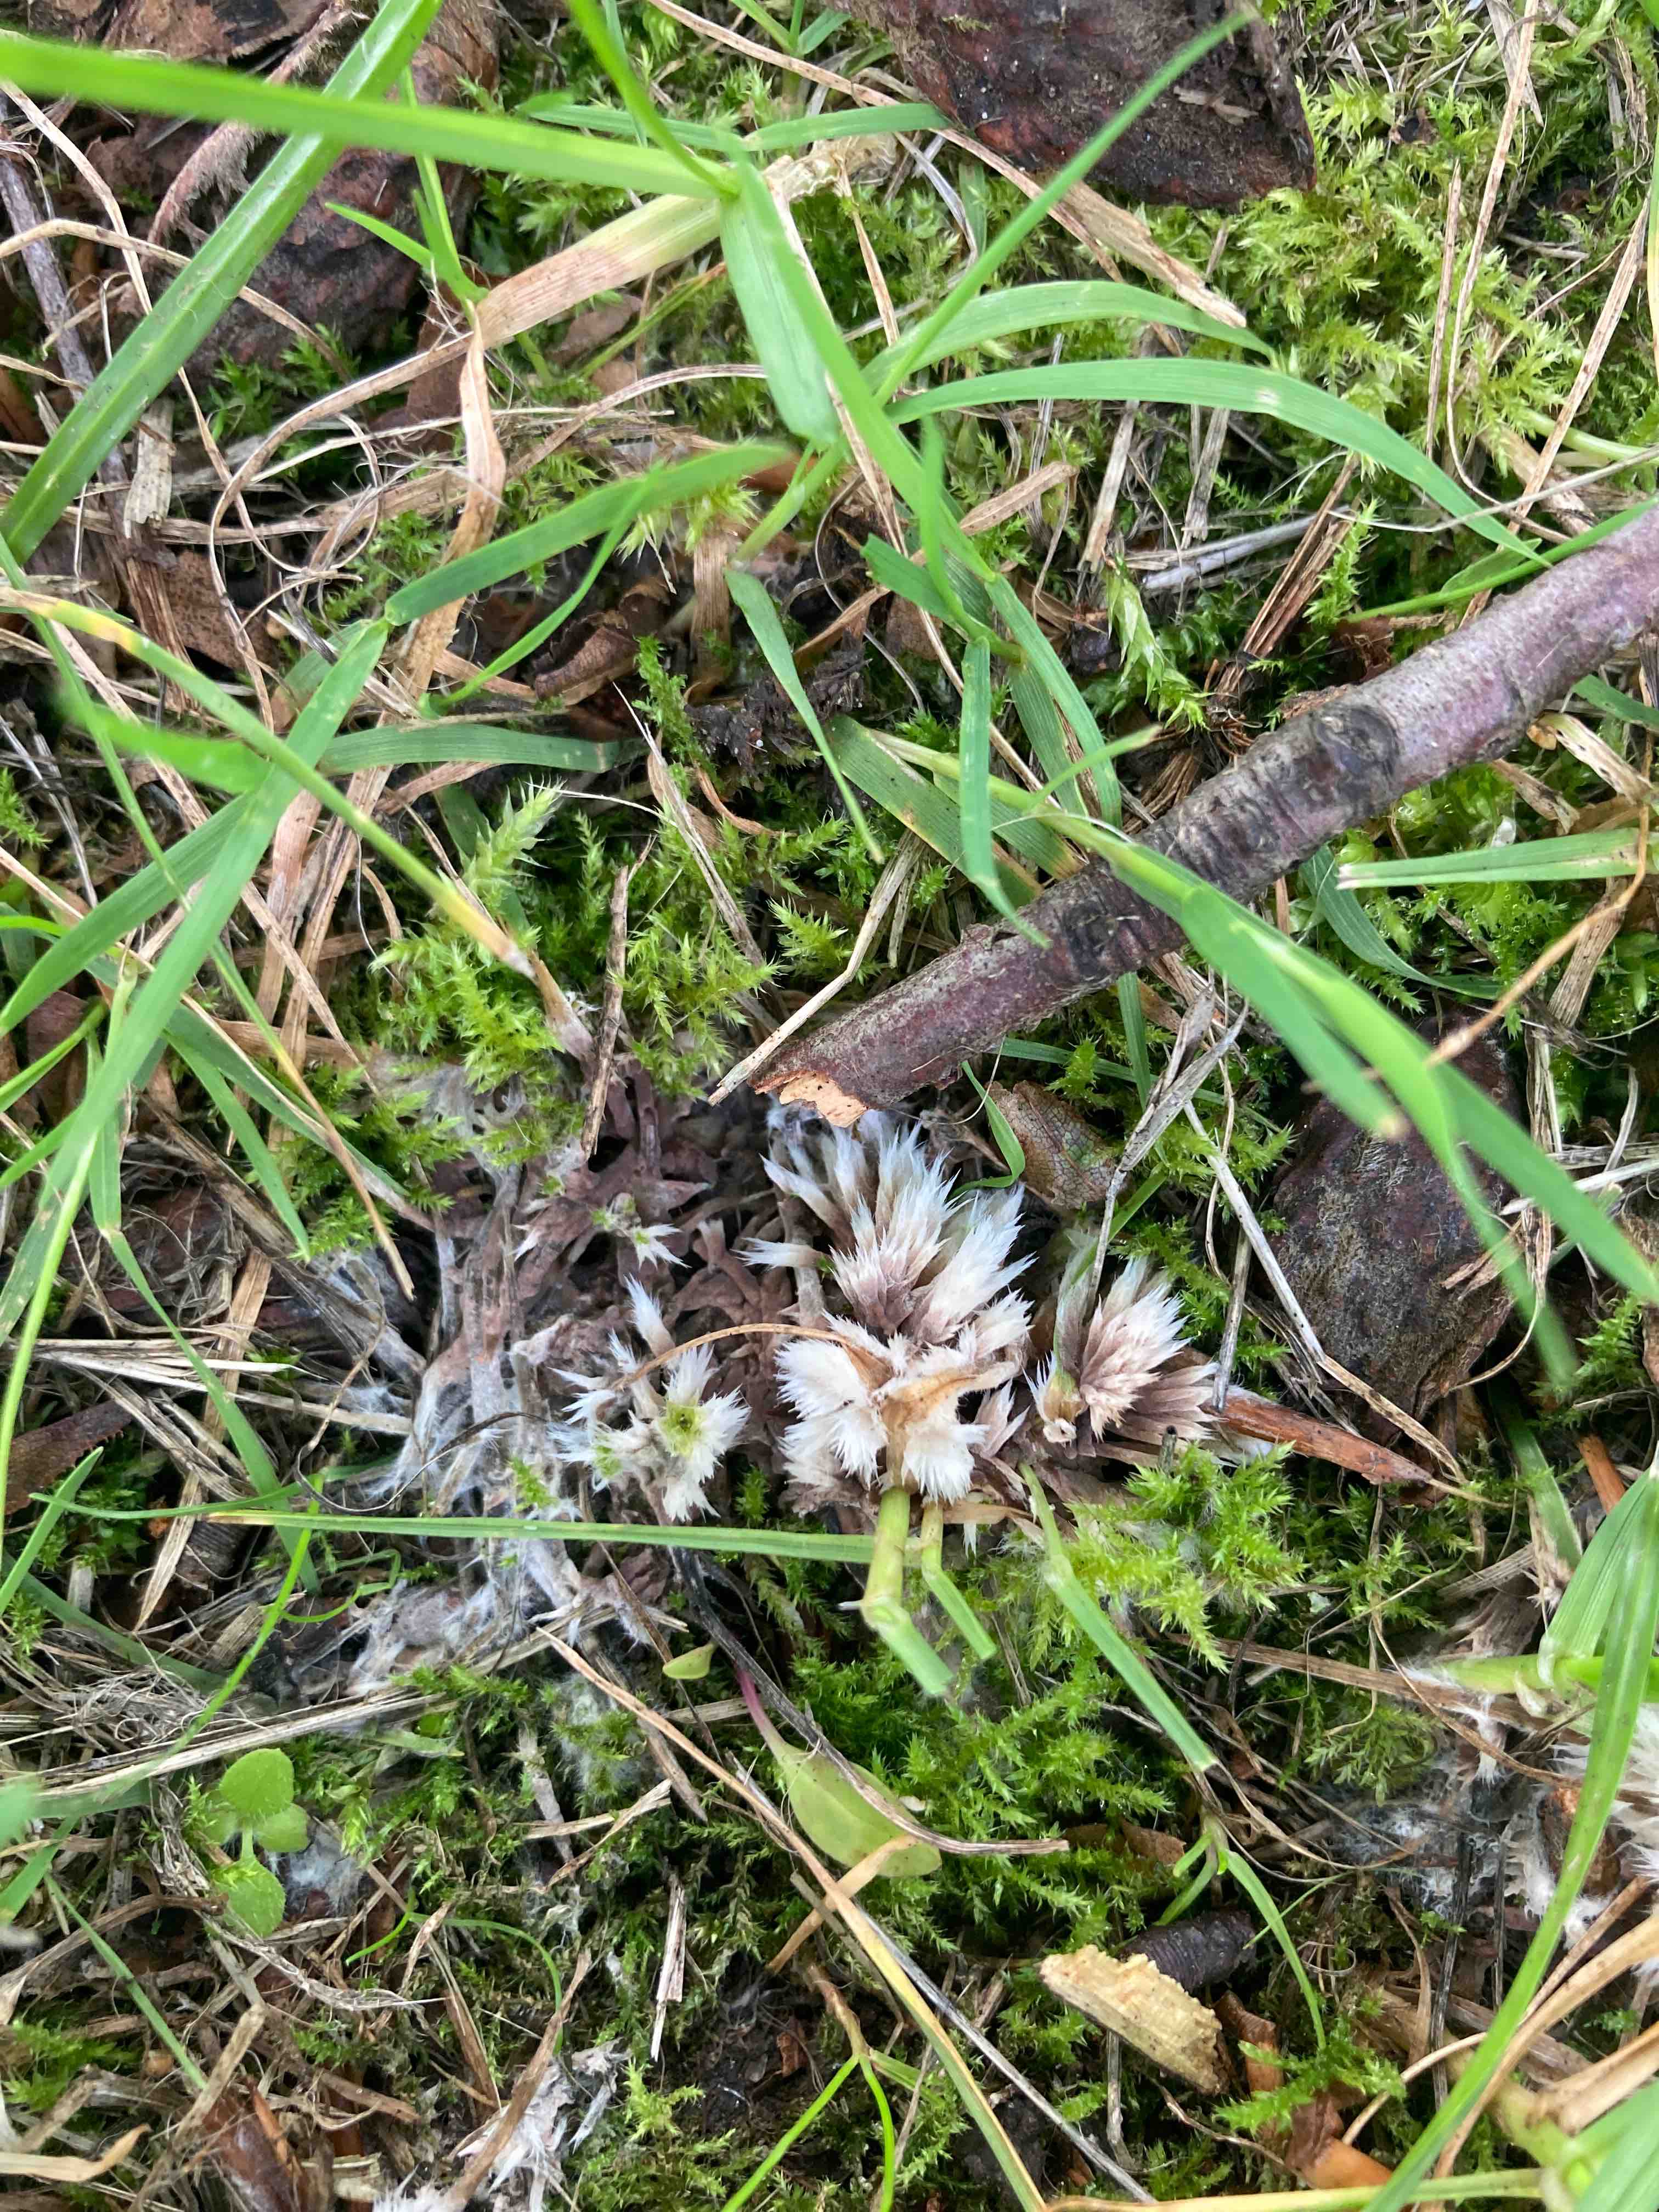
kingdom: Fungi
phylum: Basidiomycota
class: Agaricomycetes
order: Thelephorales
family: Thelephoraceae
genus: Thelephora
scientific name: Thelephora penicillata
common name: fladtrådt frynsesvamp
